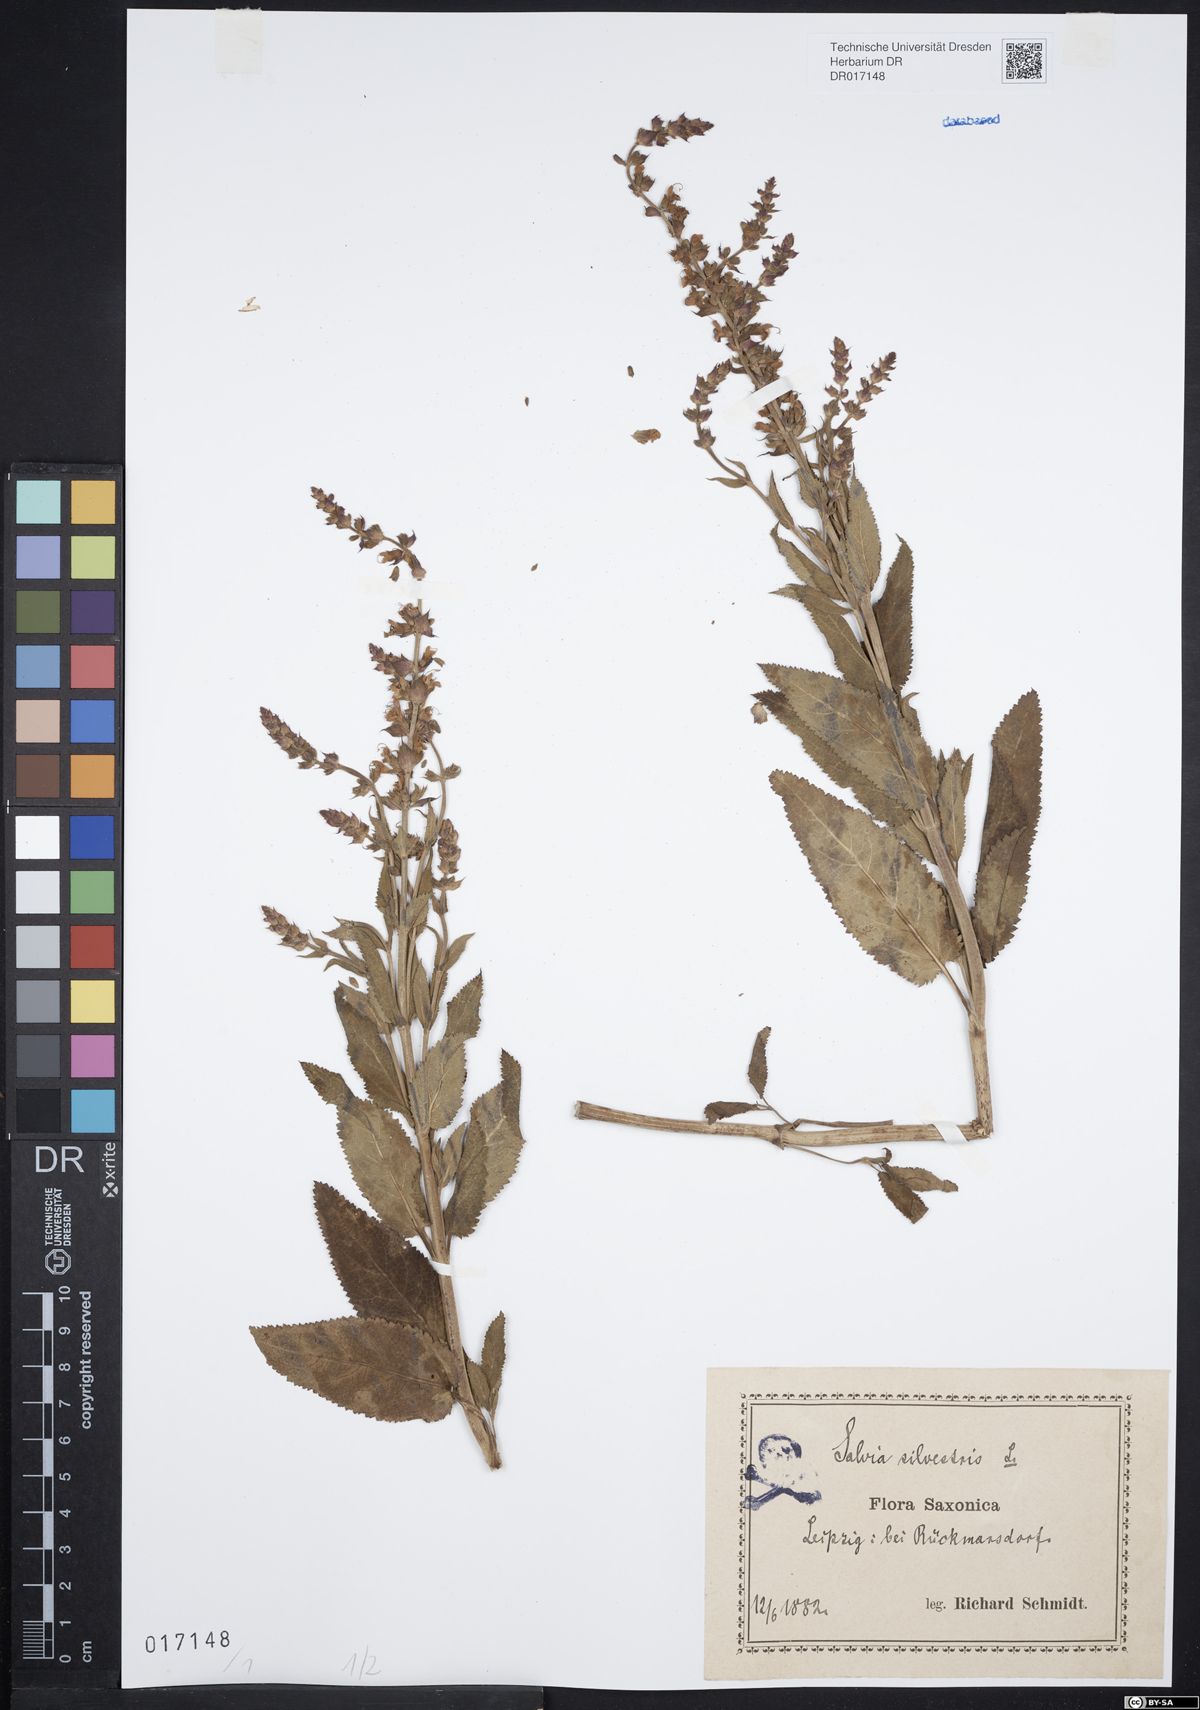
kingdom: Plantae
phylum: Tracheophyta
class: Magnoliopsida
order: Lamiales
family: Lamiaceae
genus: Salvia
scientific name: Salvia nemorosa
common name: Balkan clary
